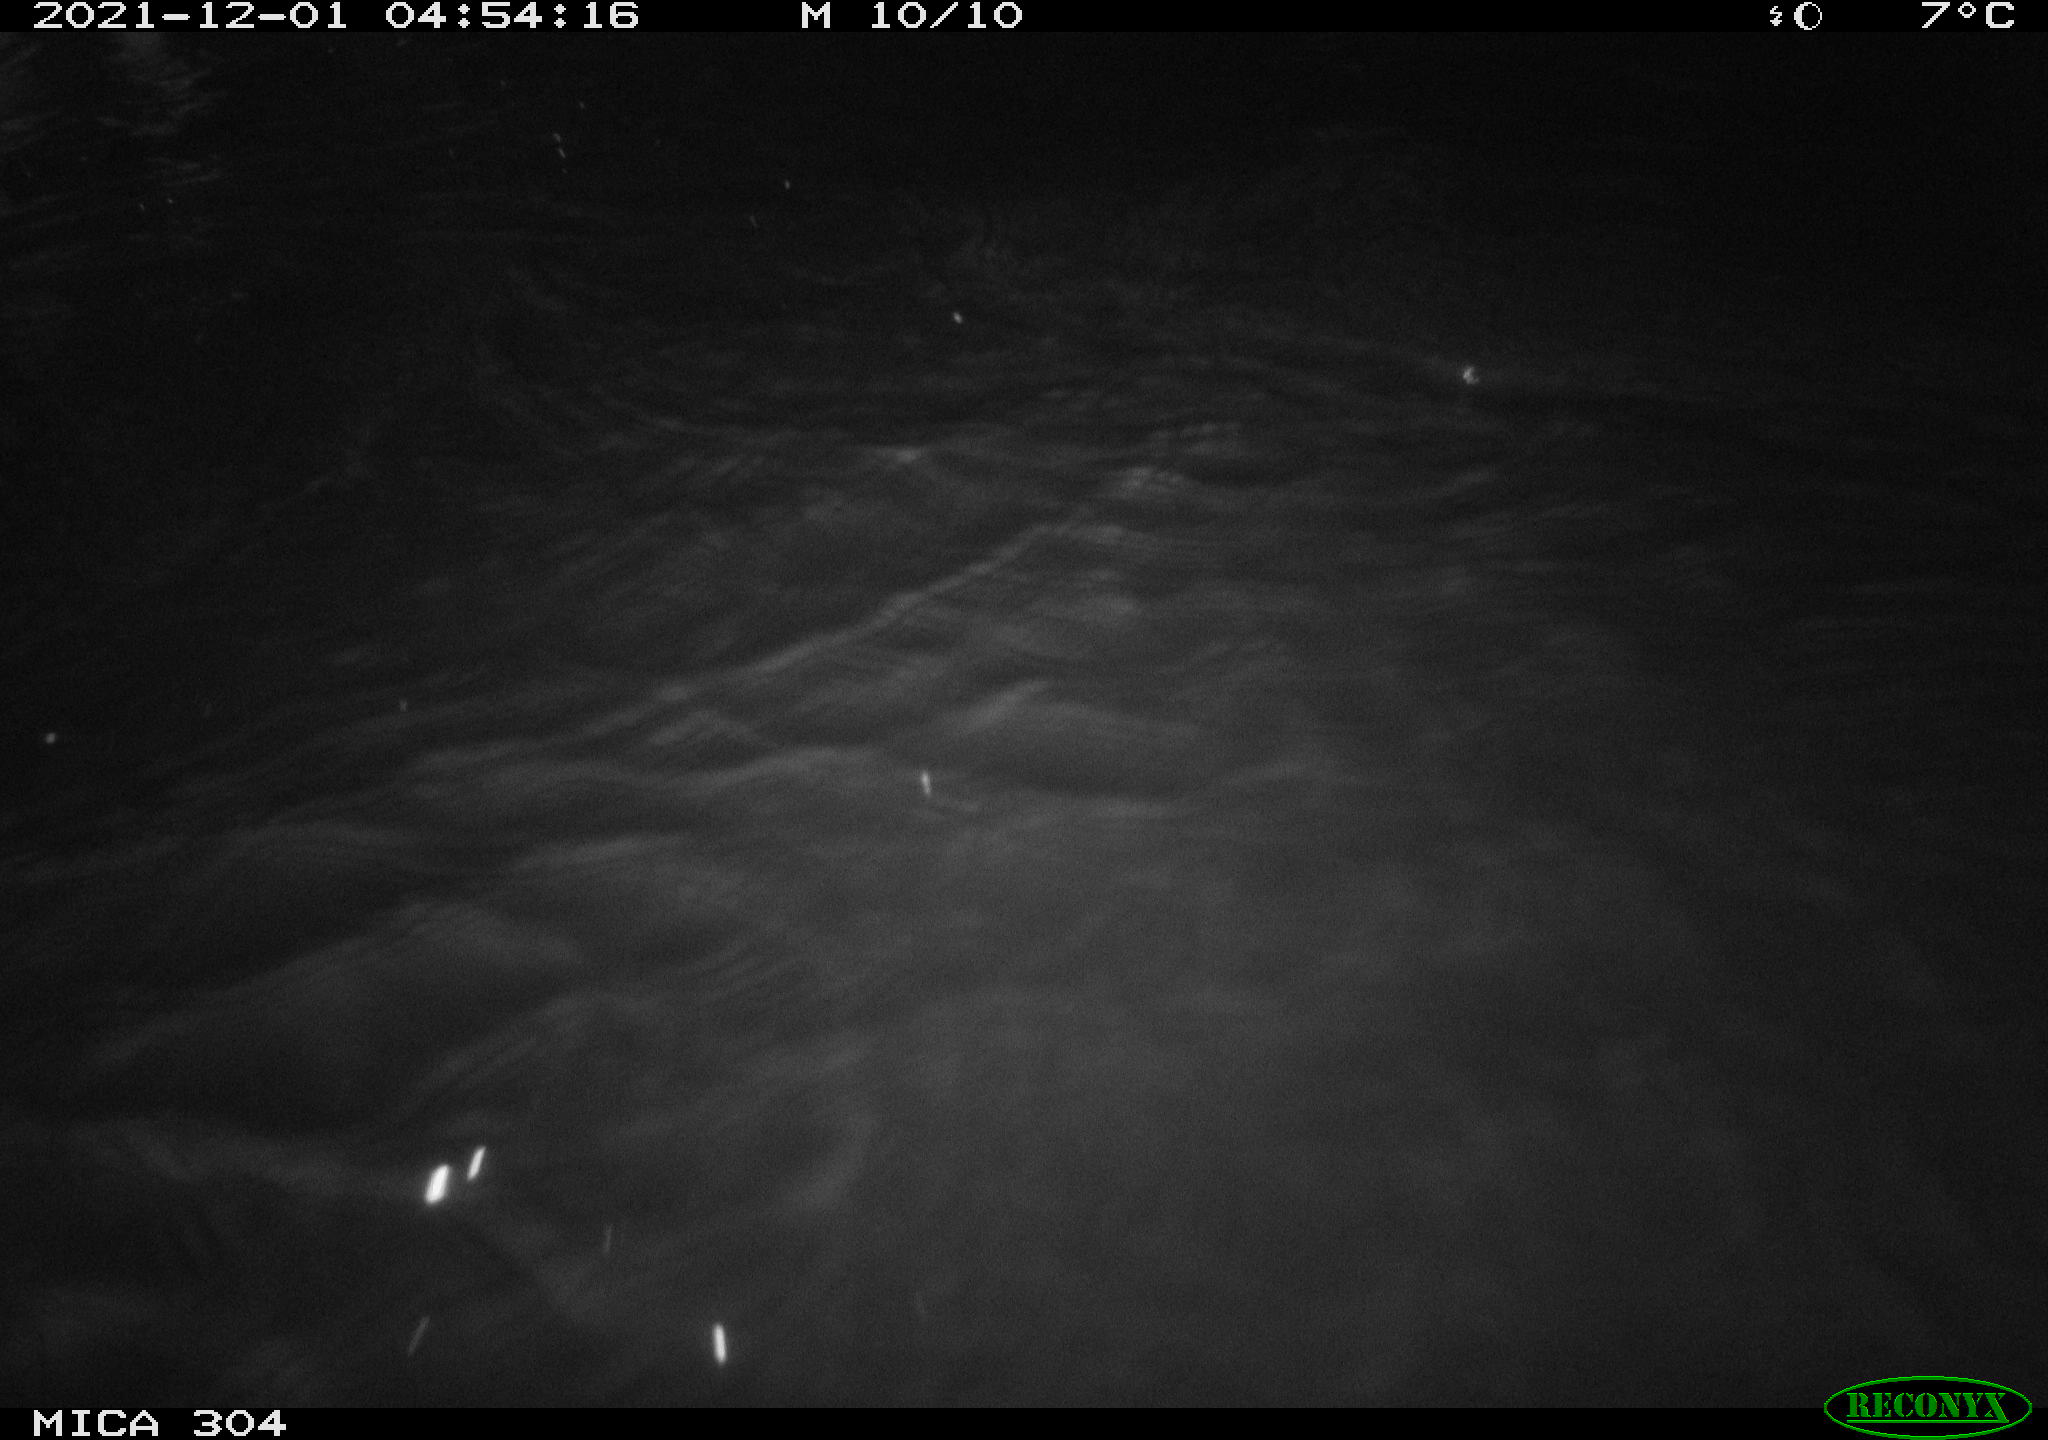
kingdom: Animalia
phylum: Chordata
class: Mammalia
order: Rodentia
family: Muridae
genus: Rattus
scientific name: Rattus norvegicus
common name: Brown rat
